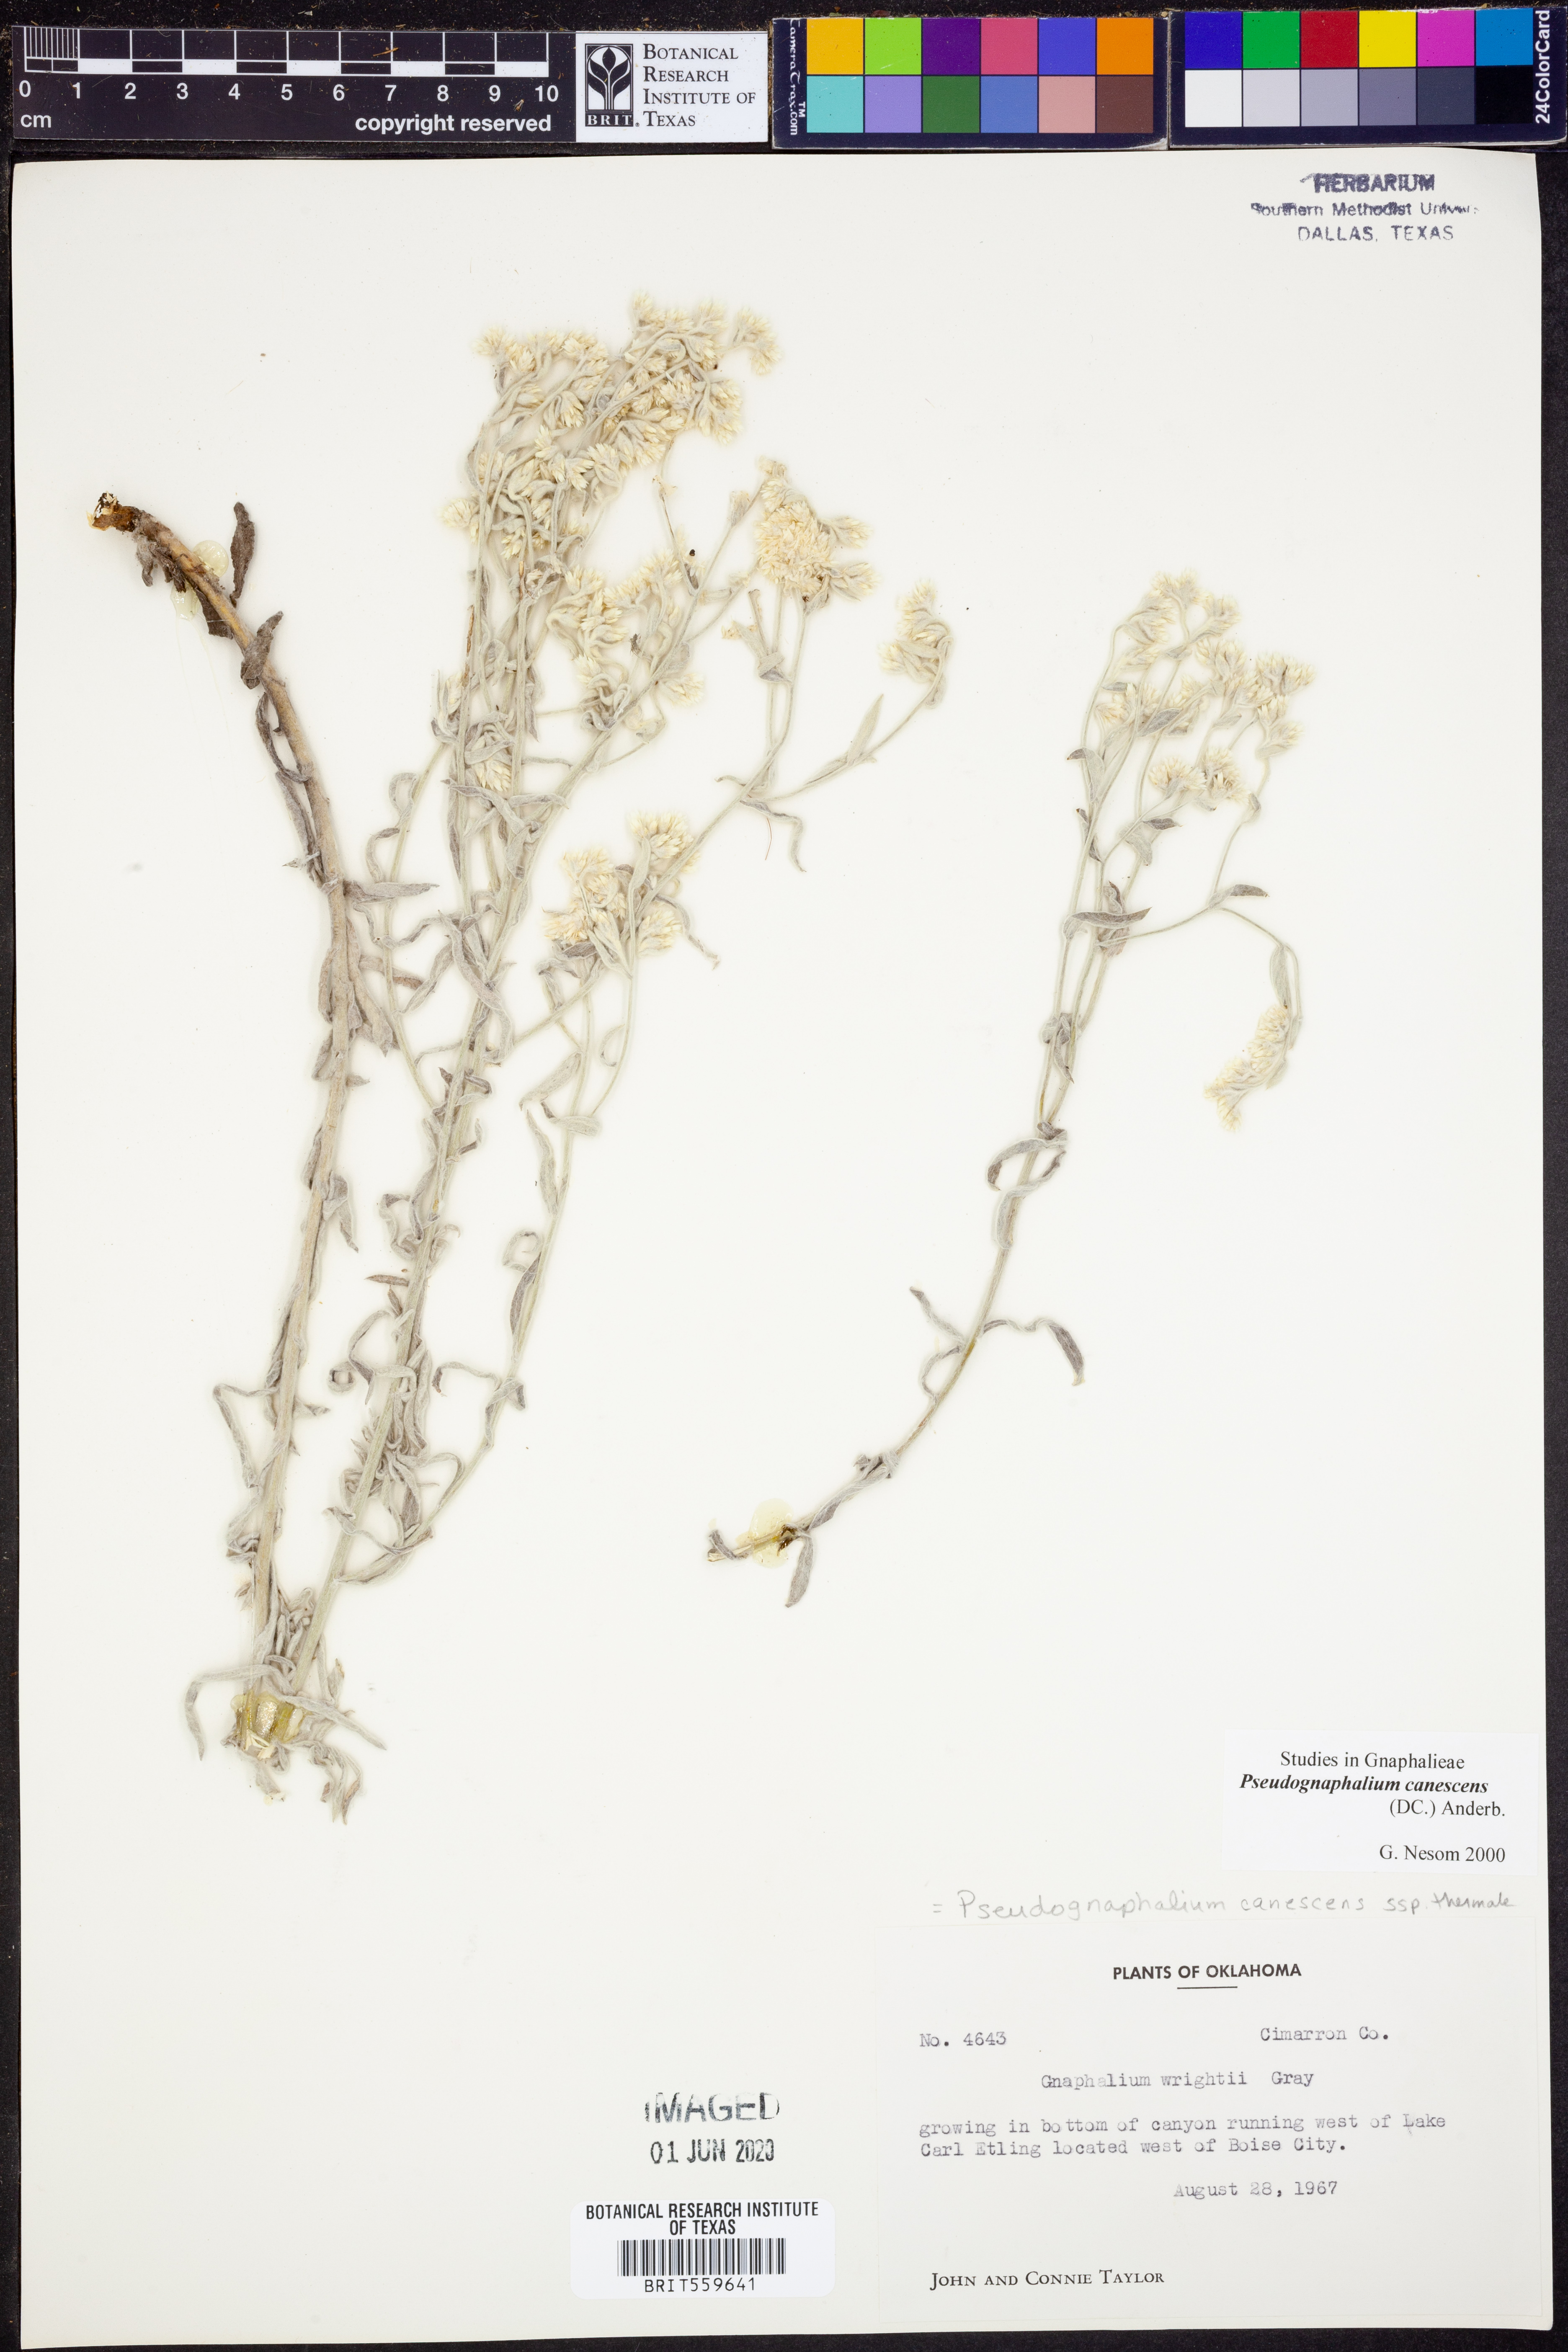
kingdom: Plantae
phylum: Tracheophyta
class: Magnoliopsida
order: Asterales
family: Asteraceae
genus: Pseudognaphalium
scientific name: Pseudognaphalium canescens
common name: Wright's rabbit-tobacco
